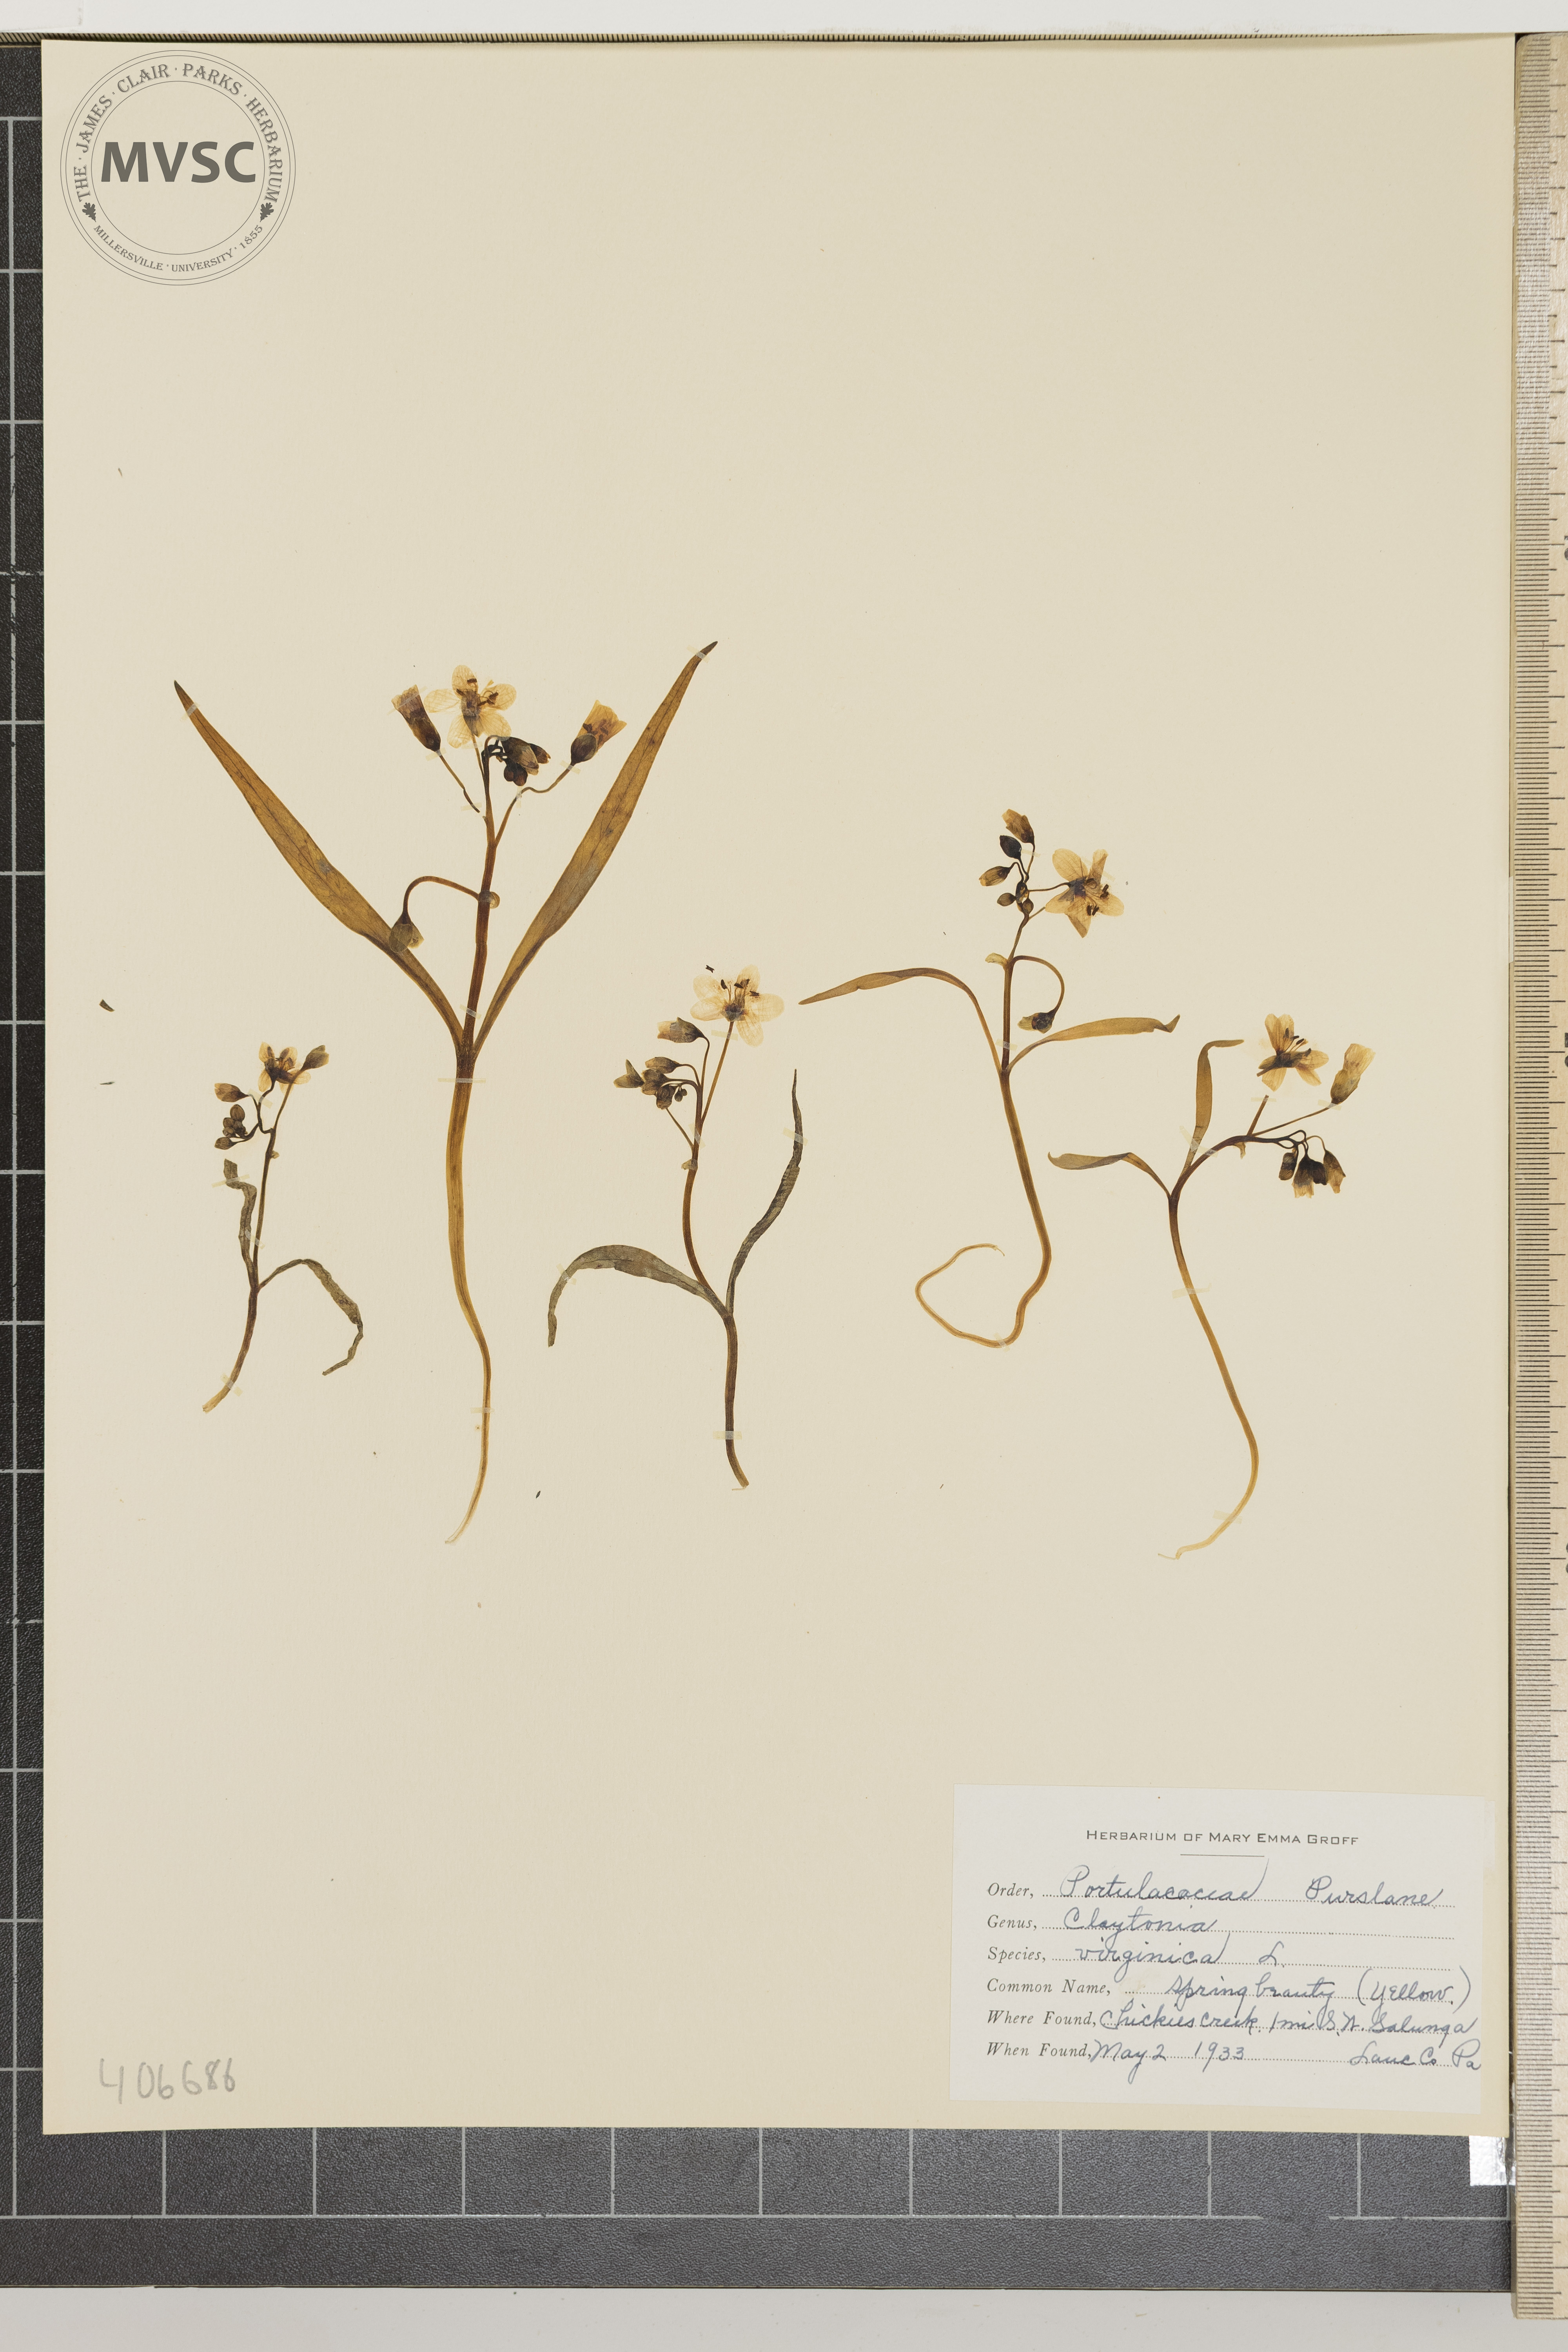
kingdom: Plantae
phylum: Tracheophyta
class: Magnoliopsida
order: Caryophyllales
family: Montiaceae
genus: Claytonia
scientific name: Claytonia virginica
